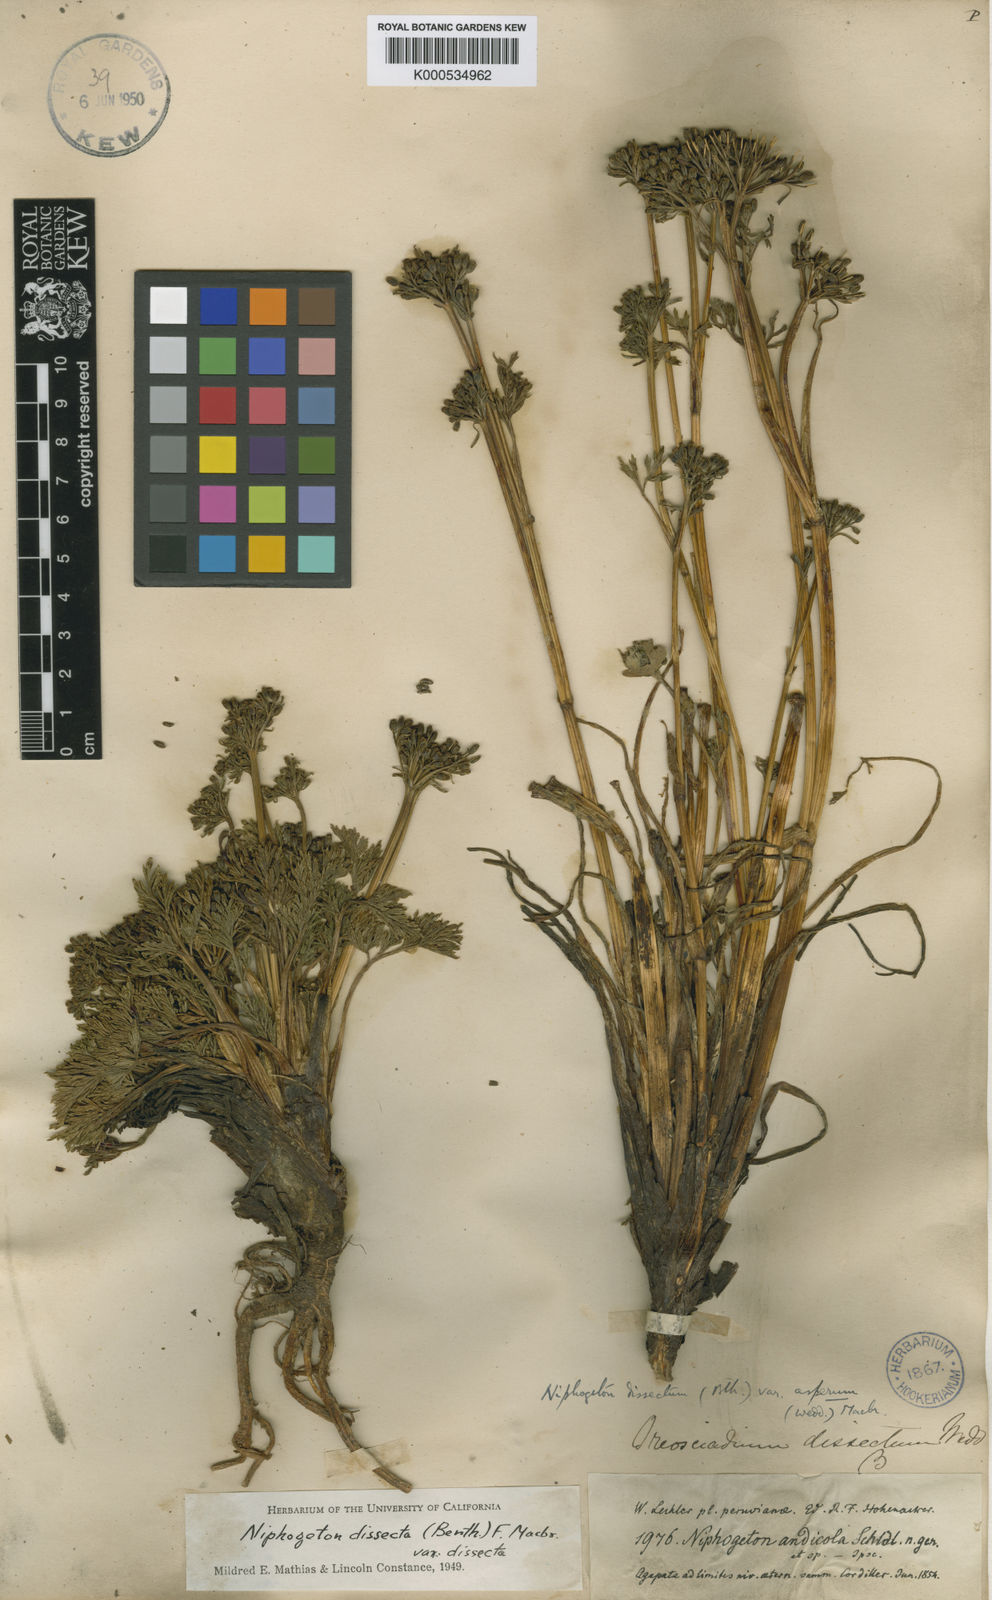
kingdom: Plantae
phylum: Tracheophyta
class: Magnoliopsida
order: Apiales
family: Apiaceae
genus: Niphogeton
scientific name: Niphogeton dissecta
